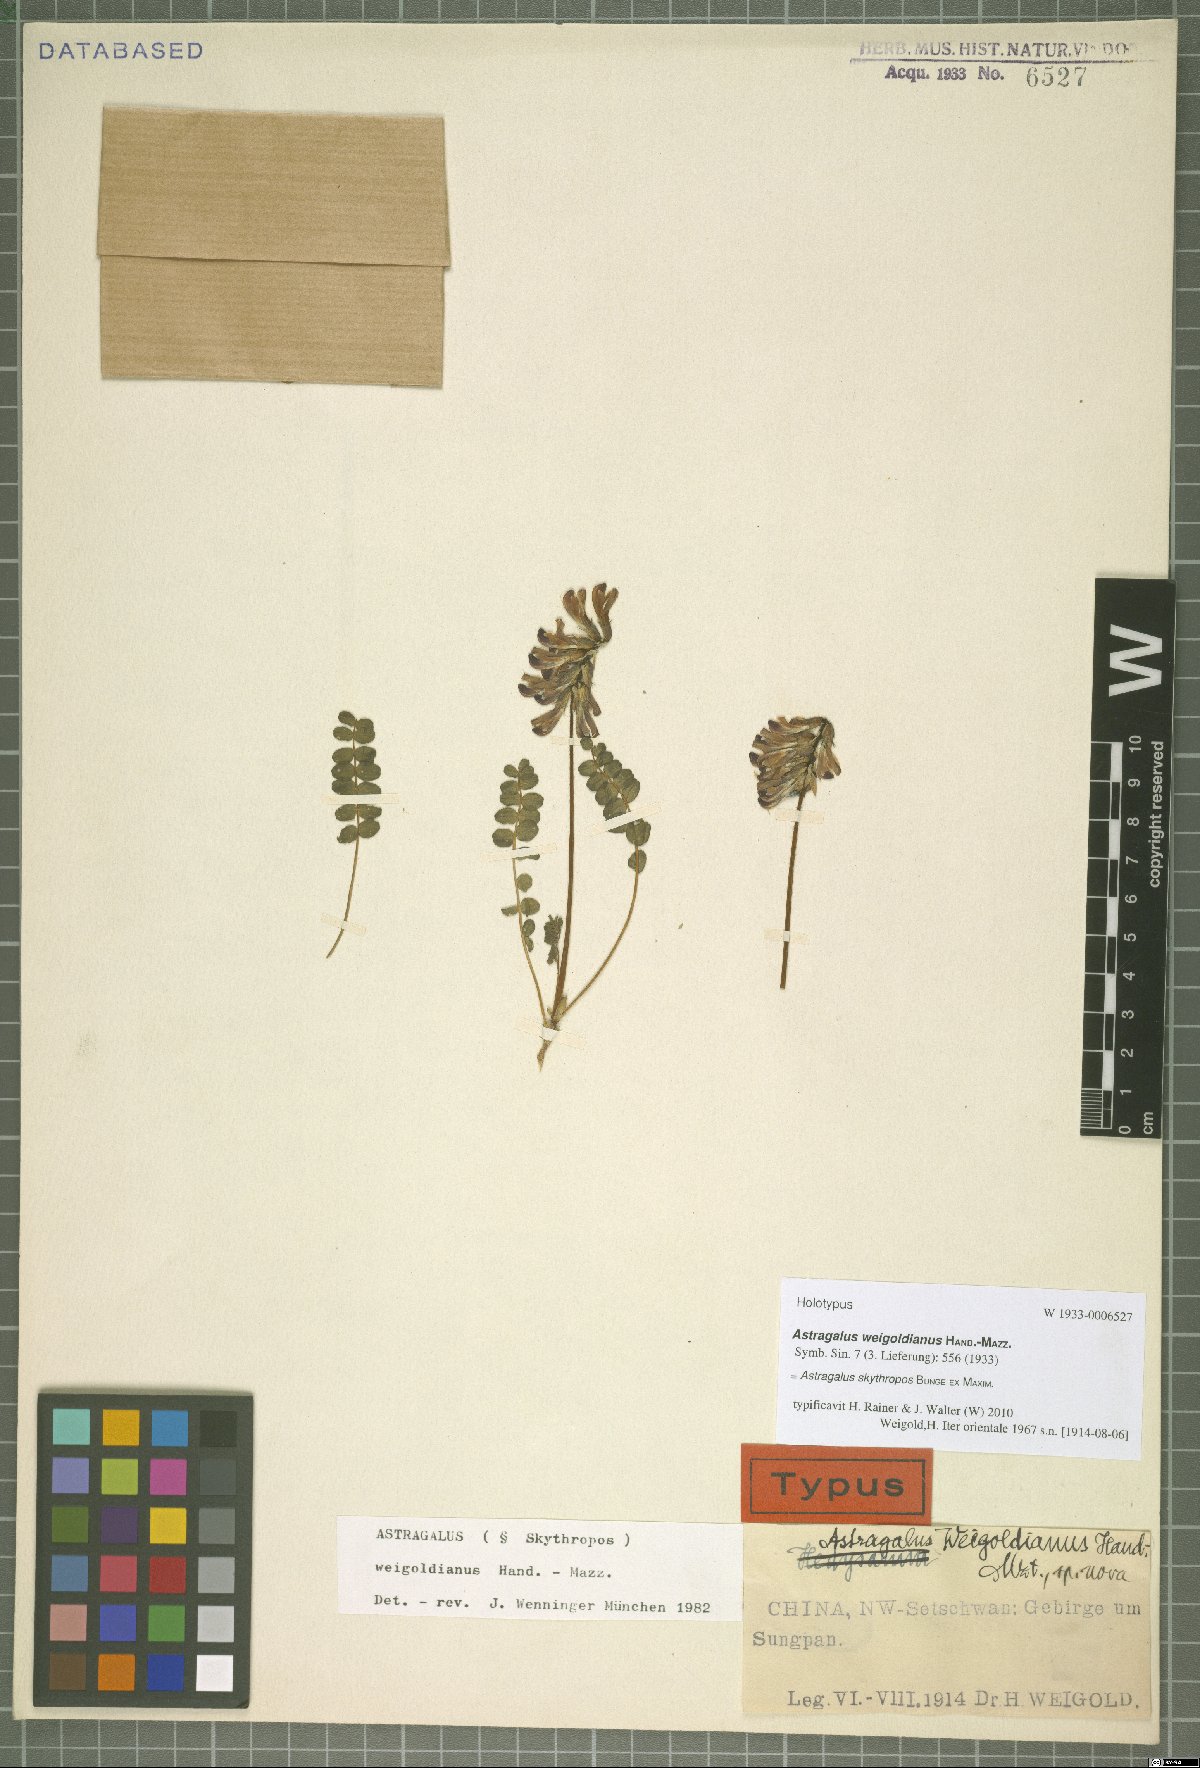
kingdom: Plantae
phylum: Tracheophyta
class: Magnoliopsida
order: Fabales
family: Fabaceae
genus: Astragalus
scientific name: Astragalus skythropos
